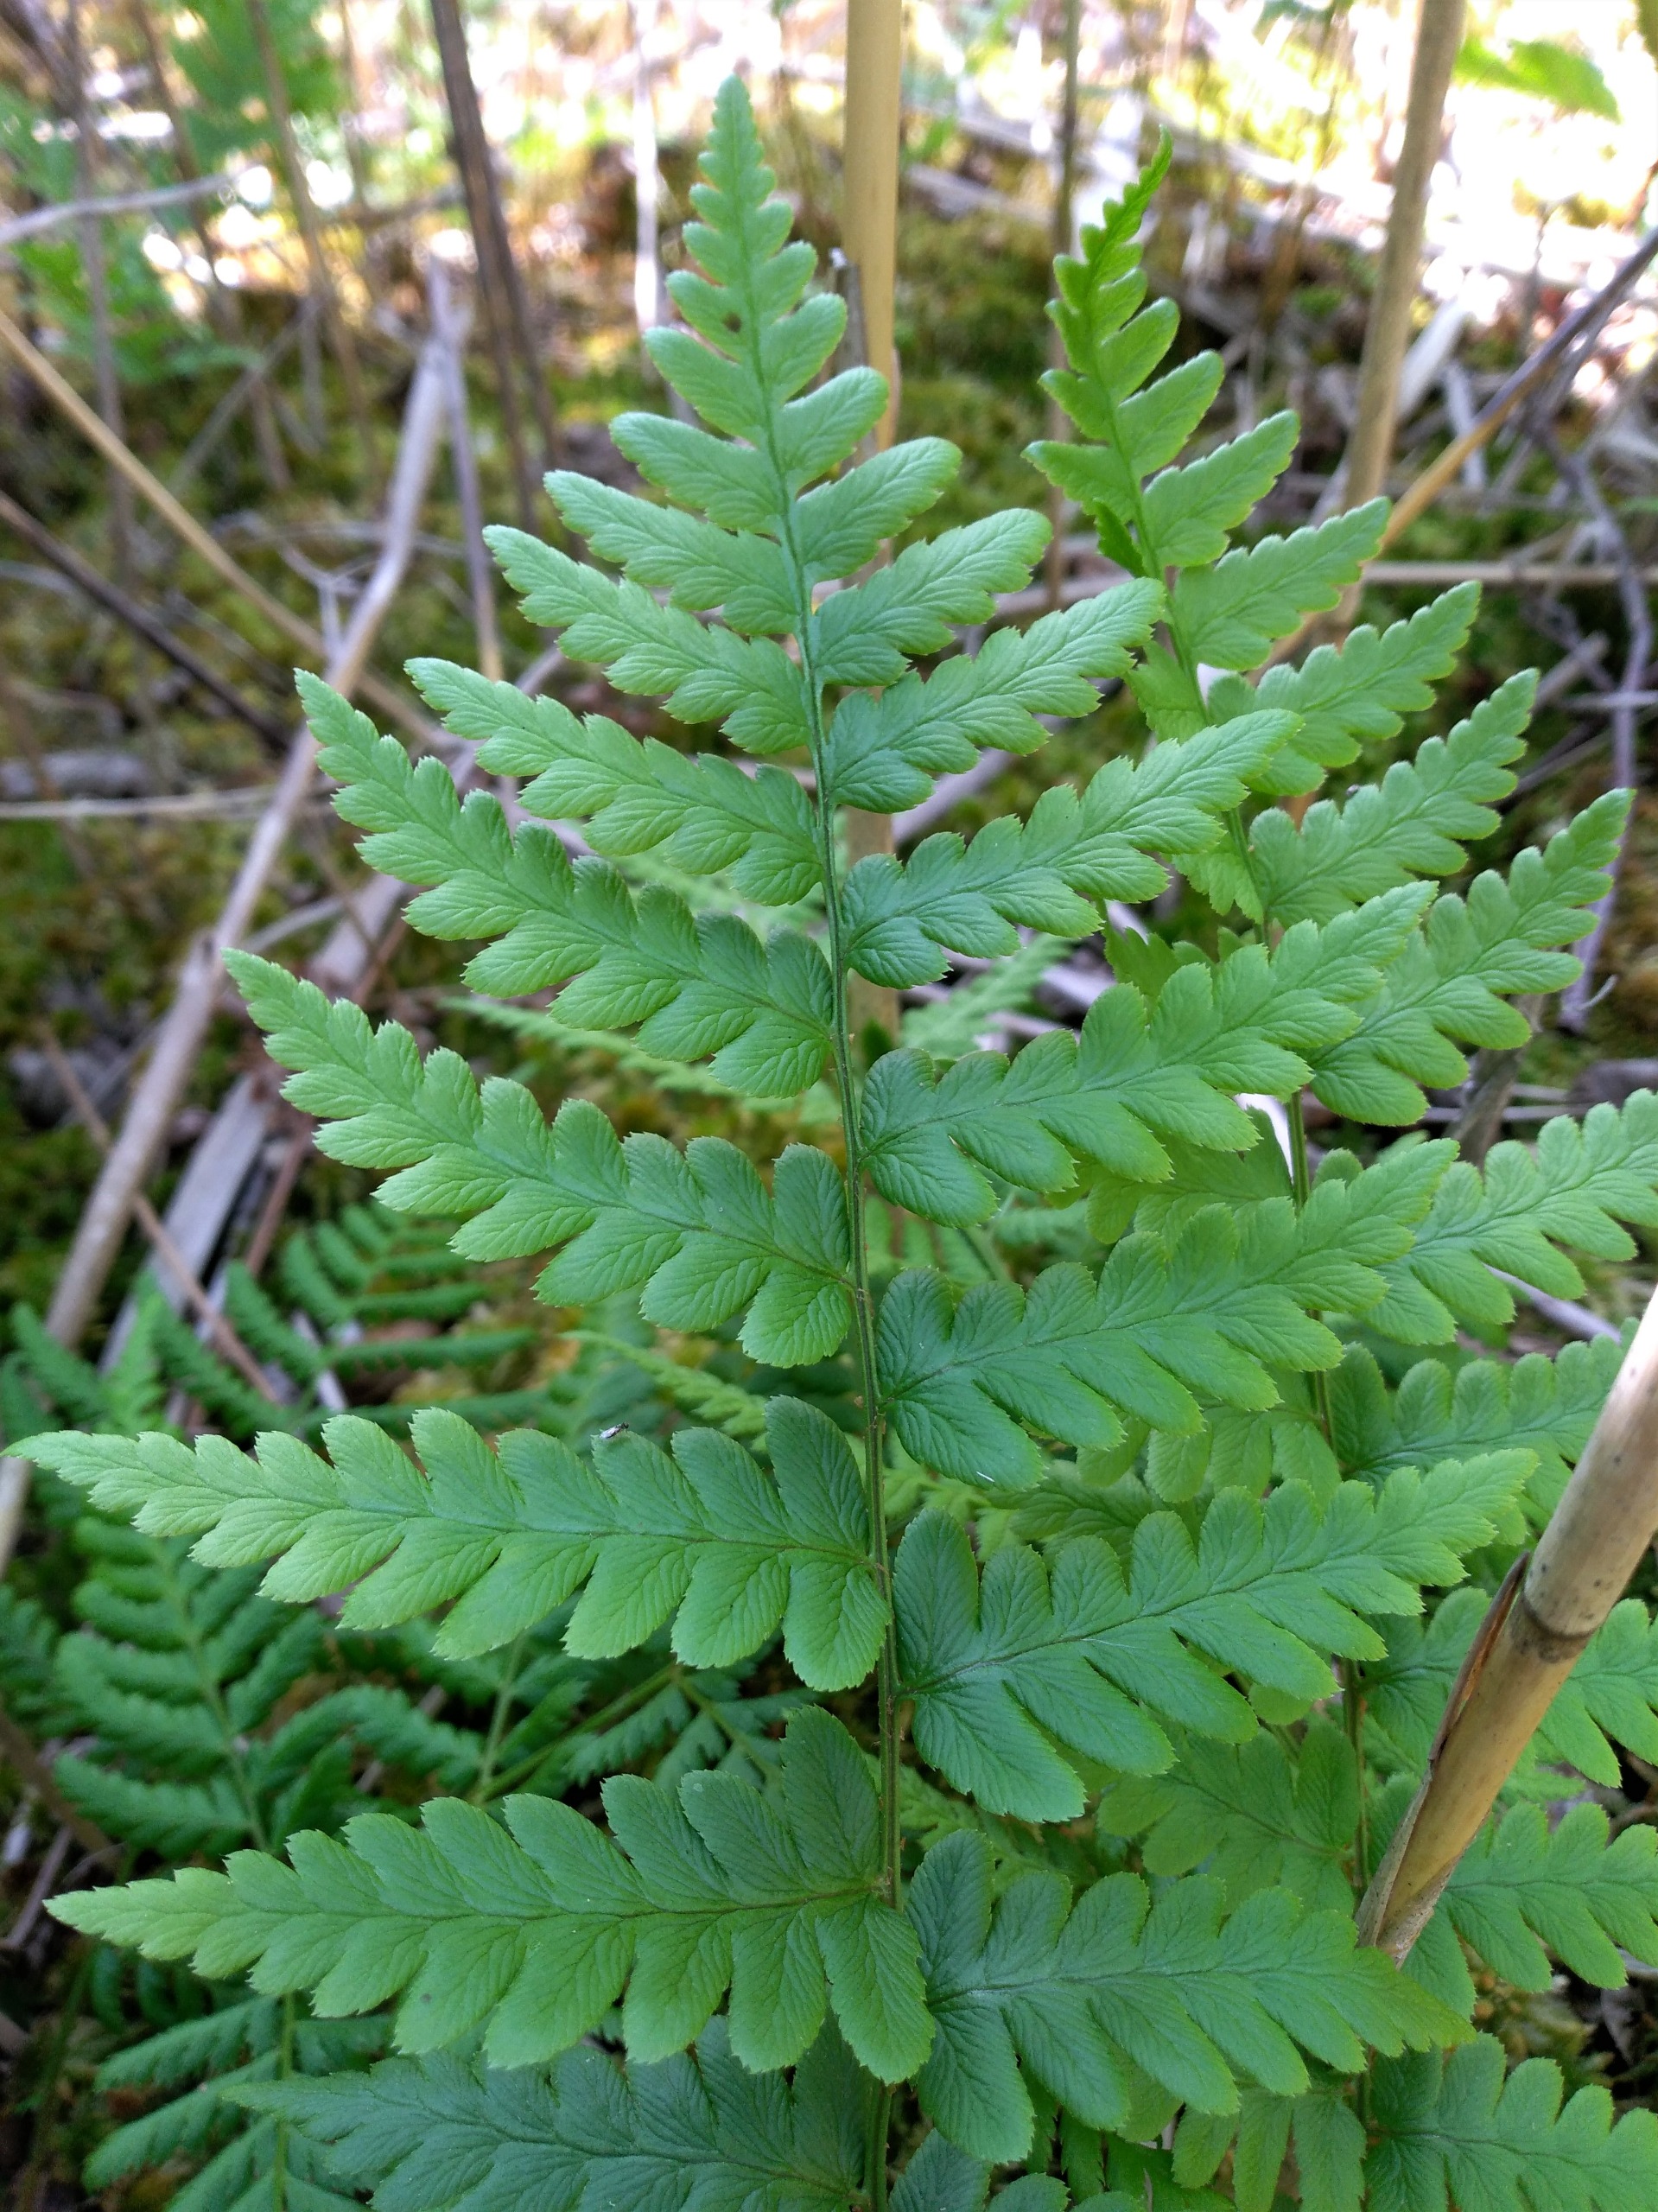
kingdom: Plantae
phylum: Tracheophyta
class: Polypodiopsida
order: Polypodiales
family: Dryopteridaceae
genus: Dryopteris
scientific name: Dryopteris cristata
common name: Butfinnet mangeløv
